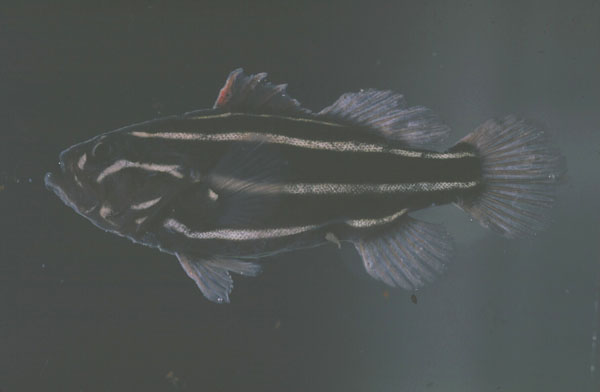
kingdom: Animalia
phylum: Chordata
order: Perciformes
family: Serranidae
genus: Grammistes
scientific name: Grammistes sexlineatus
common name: Sixline soapfish
